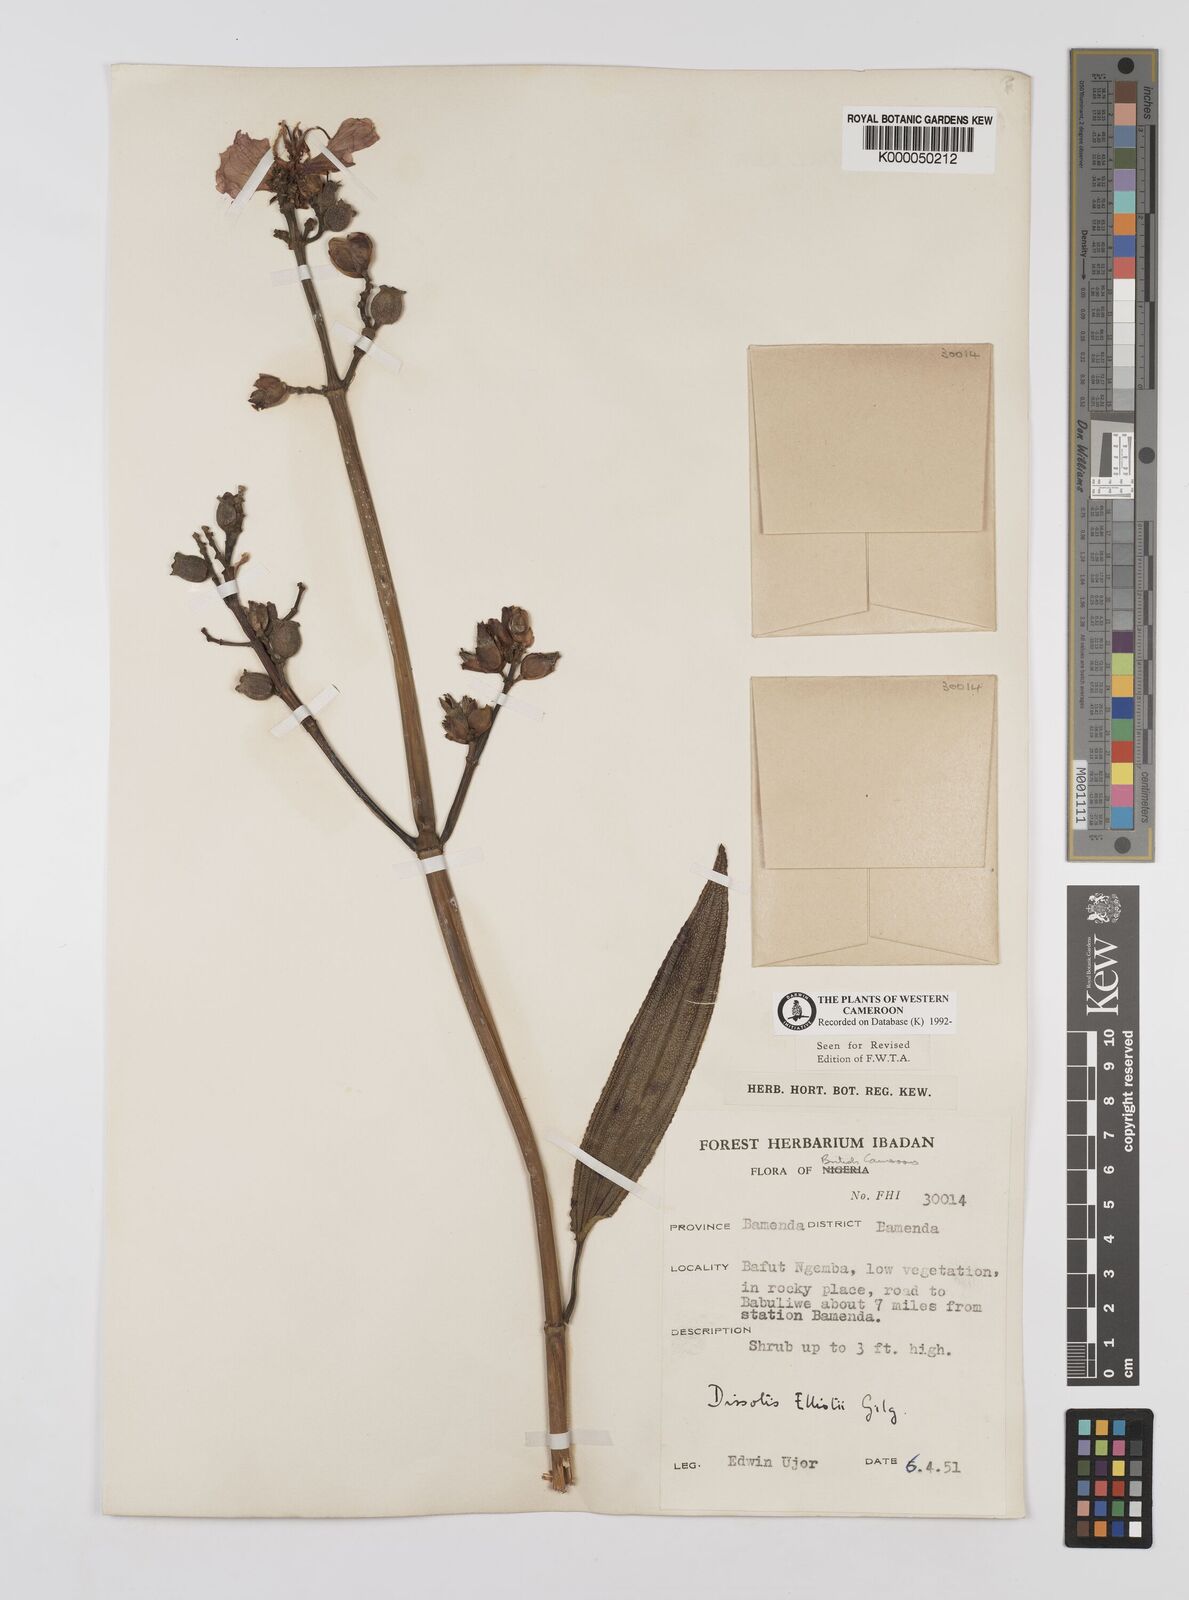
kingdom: Plantae
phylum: Tracheophyta
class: Magnoliopsida
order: Myrtales
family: Melastomataceae
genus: Dissotis
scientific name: Dissotis
